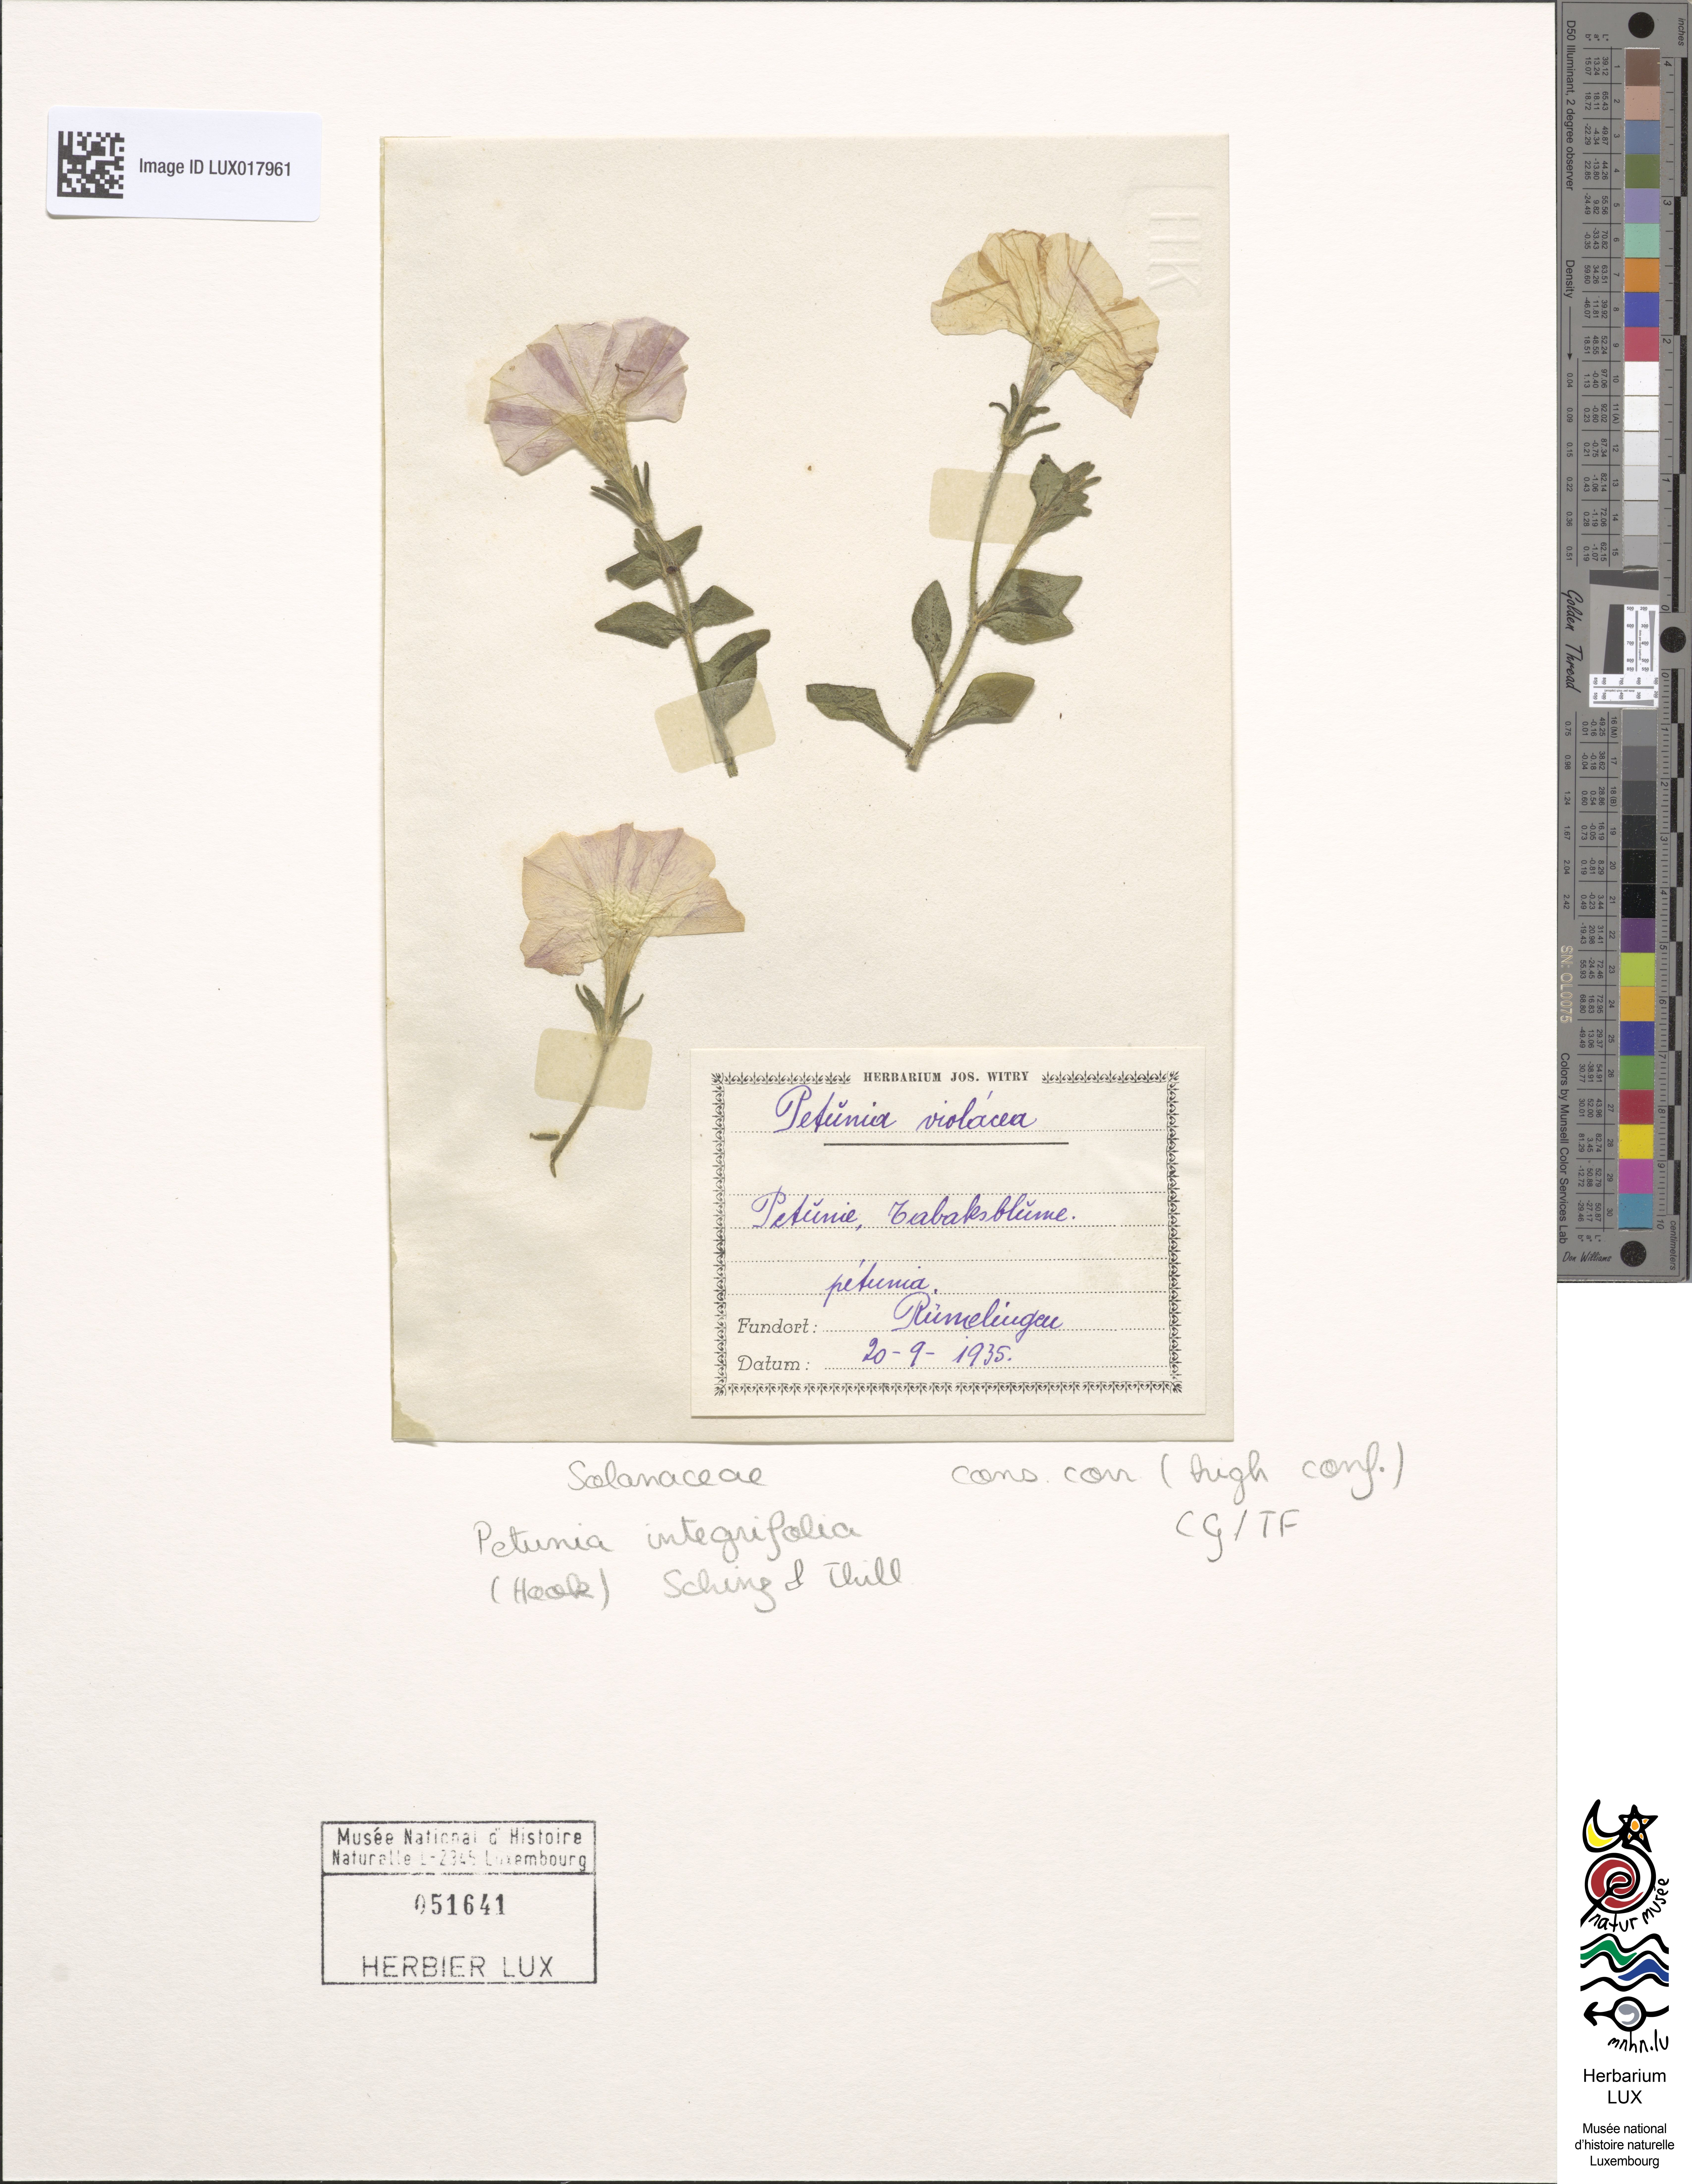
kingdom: Plantae
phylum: Tracheophyta
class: Magnoliopsida
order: Solanales
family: Solanaceae
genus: Petunia
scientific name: Petunia integrifolia
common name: Violet-flower petunia
